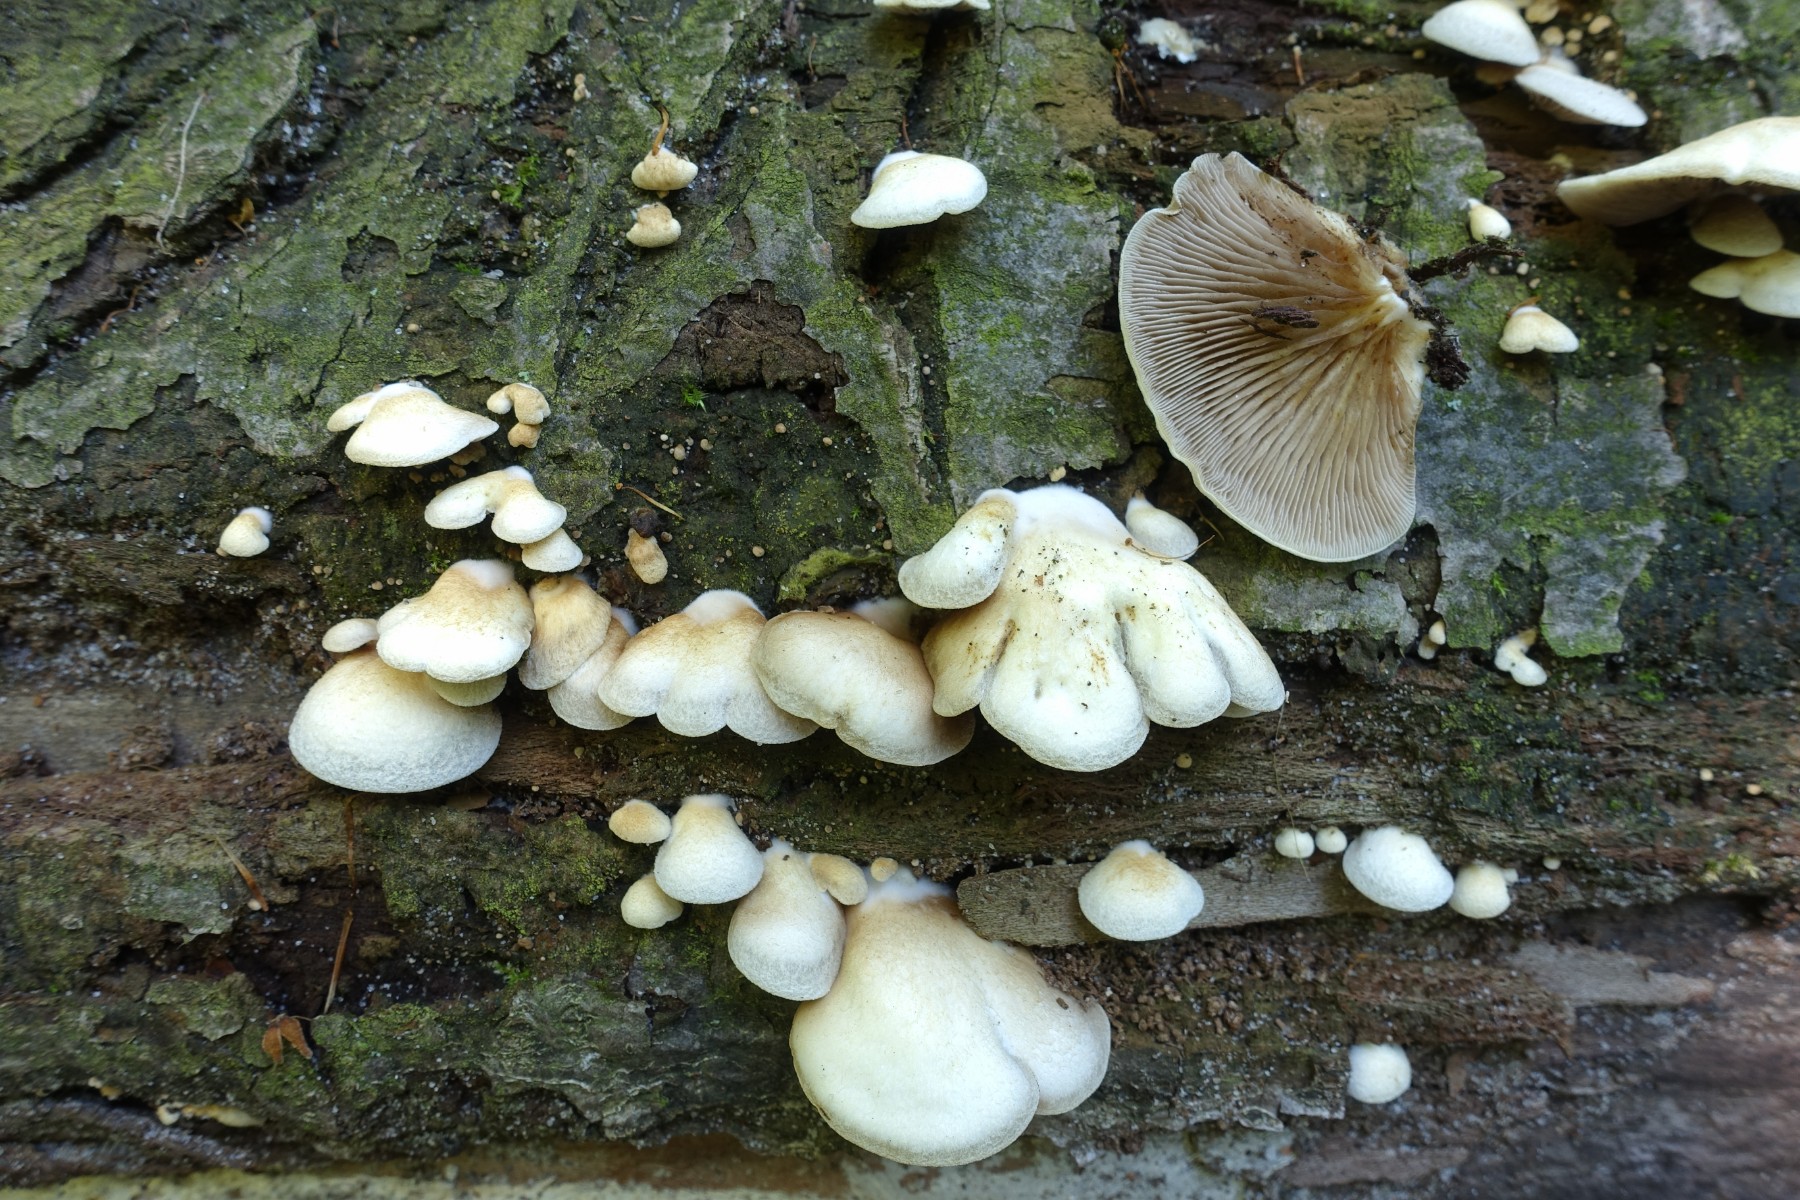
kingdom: Fungi
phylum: Basidiomycota
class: Agaricomycetes
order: Agaricales
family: Crepidotaceae
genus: Crepidotus
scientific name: Crepidotus mollis
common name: blød muslingesvamp
